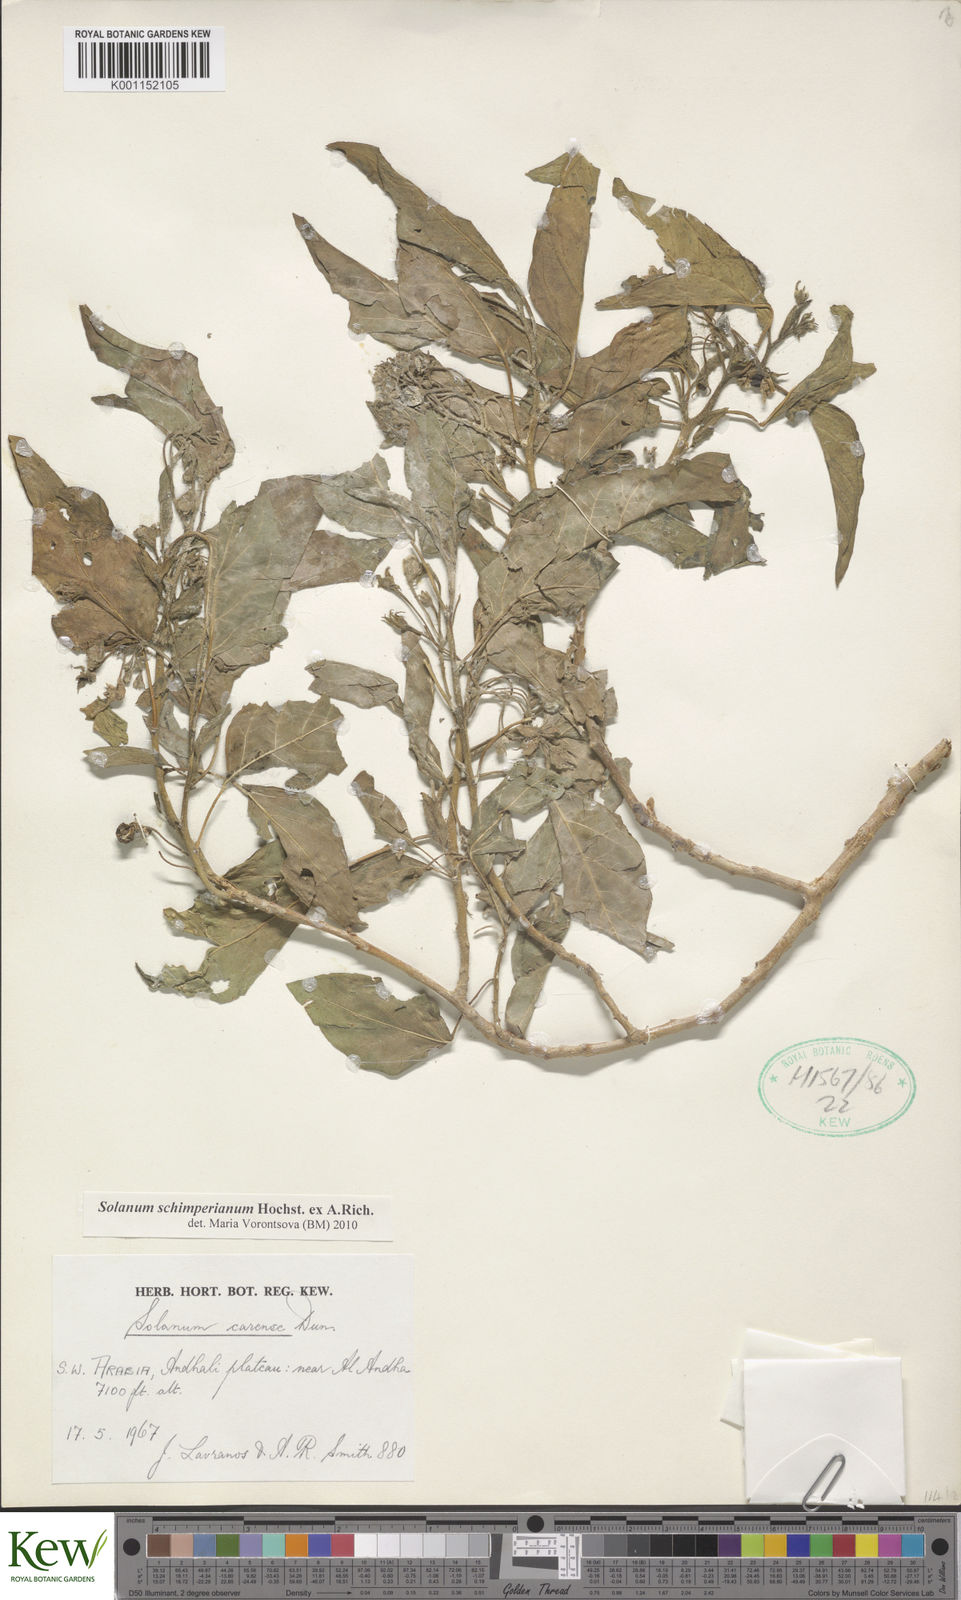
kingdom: Plantae
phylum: Tracheophyta
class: Magnoliopsida
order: Solanales
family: Solanaceae
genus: Solanum
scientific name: Solanum schimperianum
